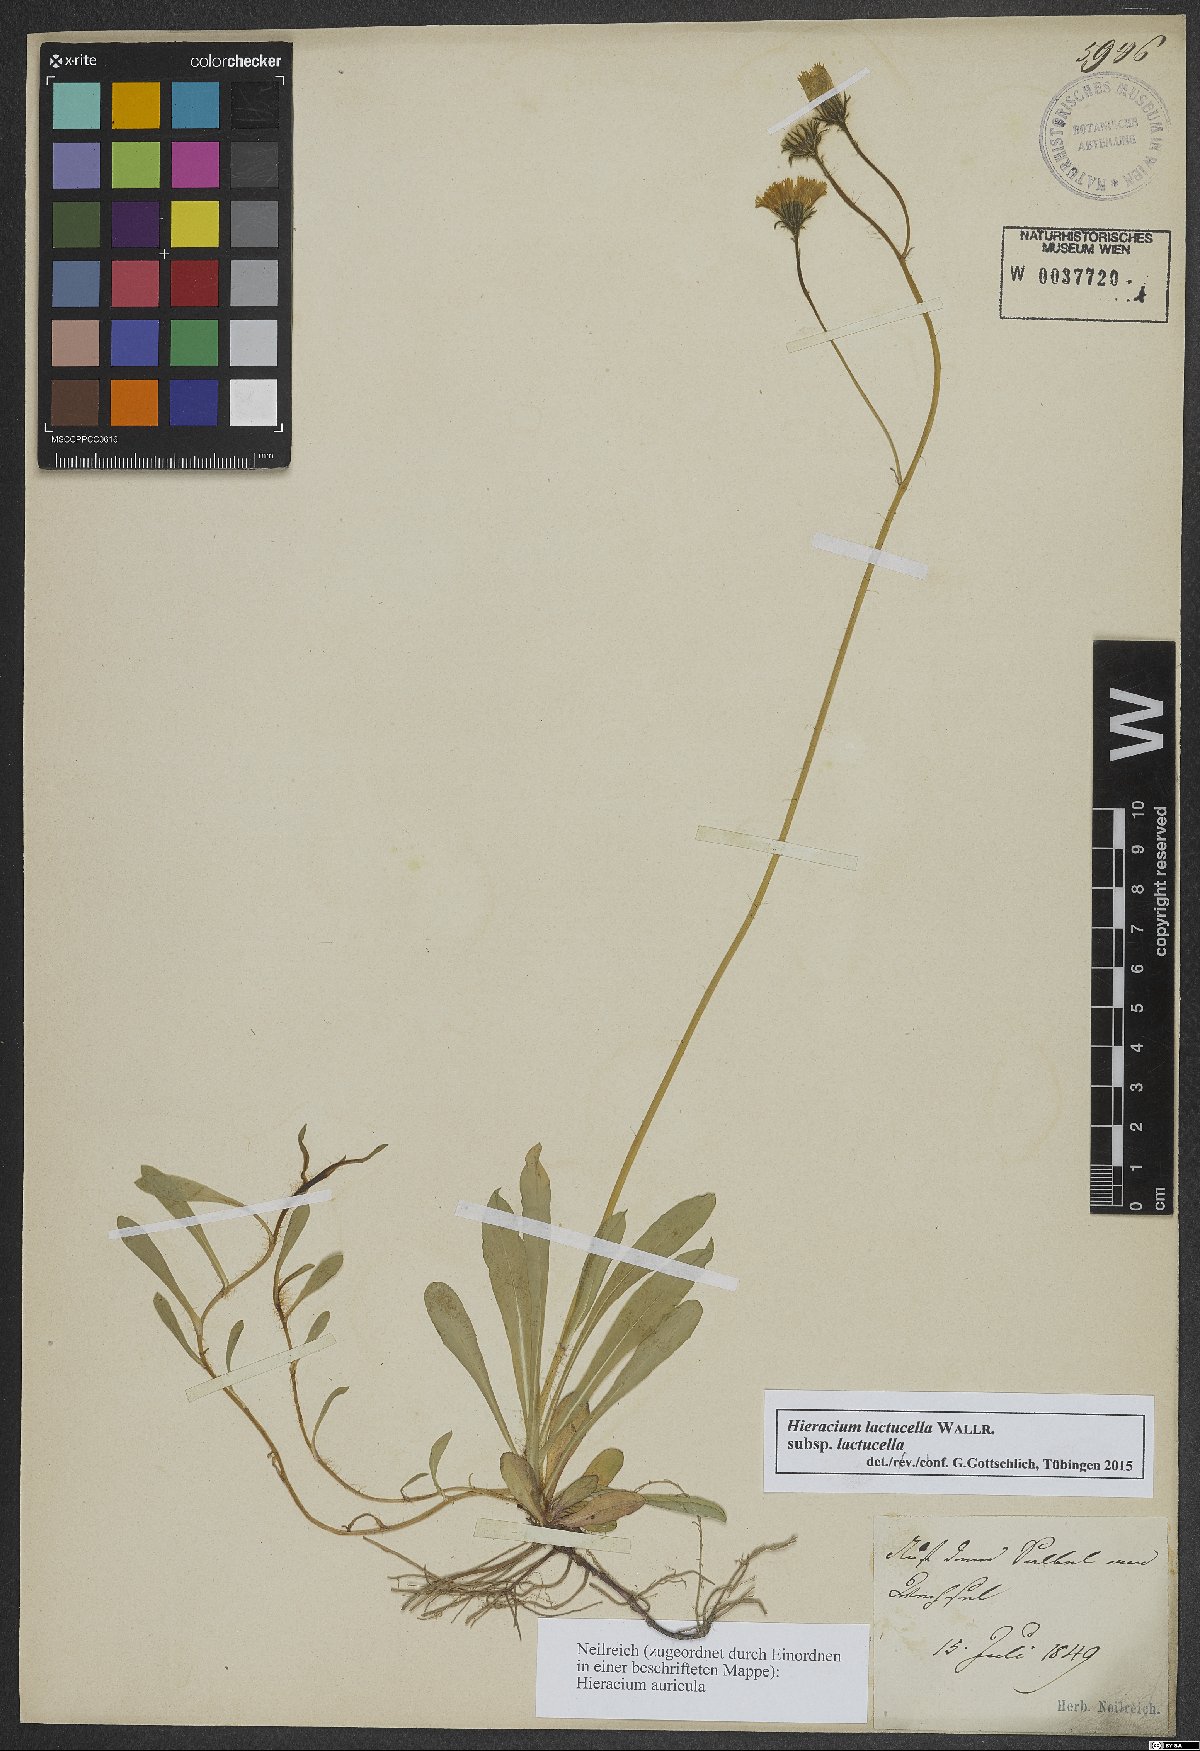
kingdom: Plantae
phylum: Tracheophyta
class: Magnoliopsida
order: Asterales
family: Asteraceae
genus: Pilosella
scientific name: Pilosella lactucella
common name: Glaucous fox-and-cubs
